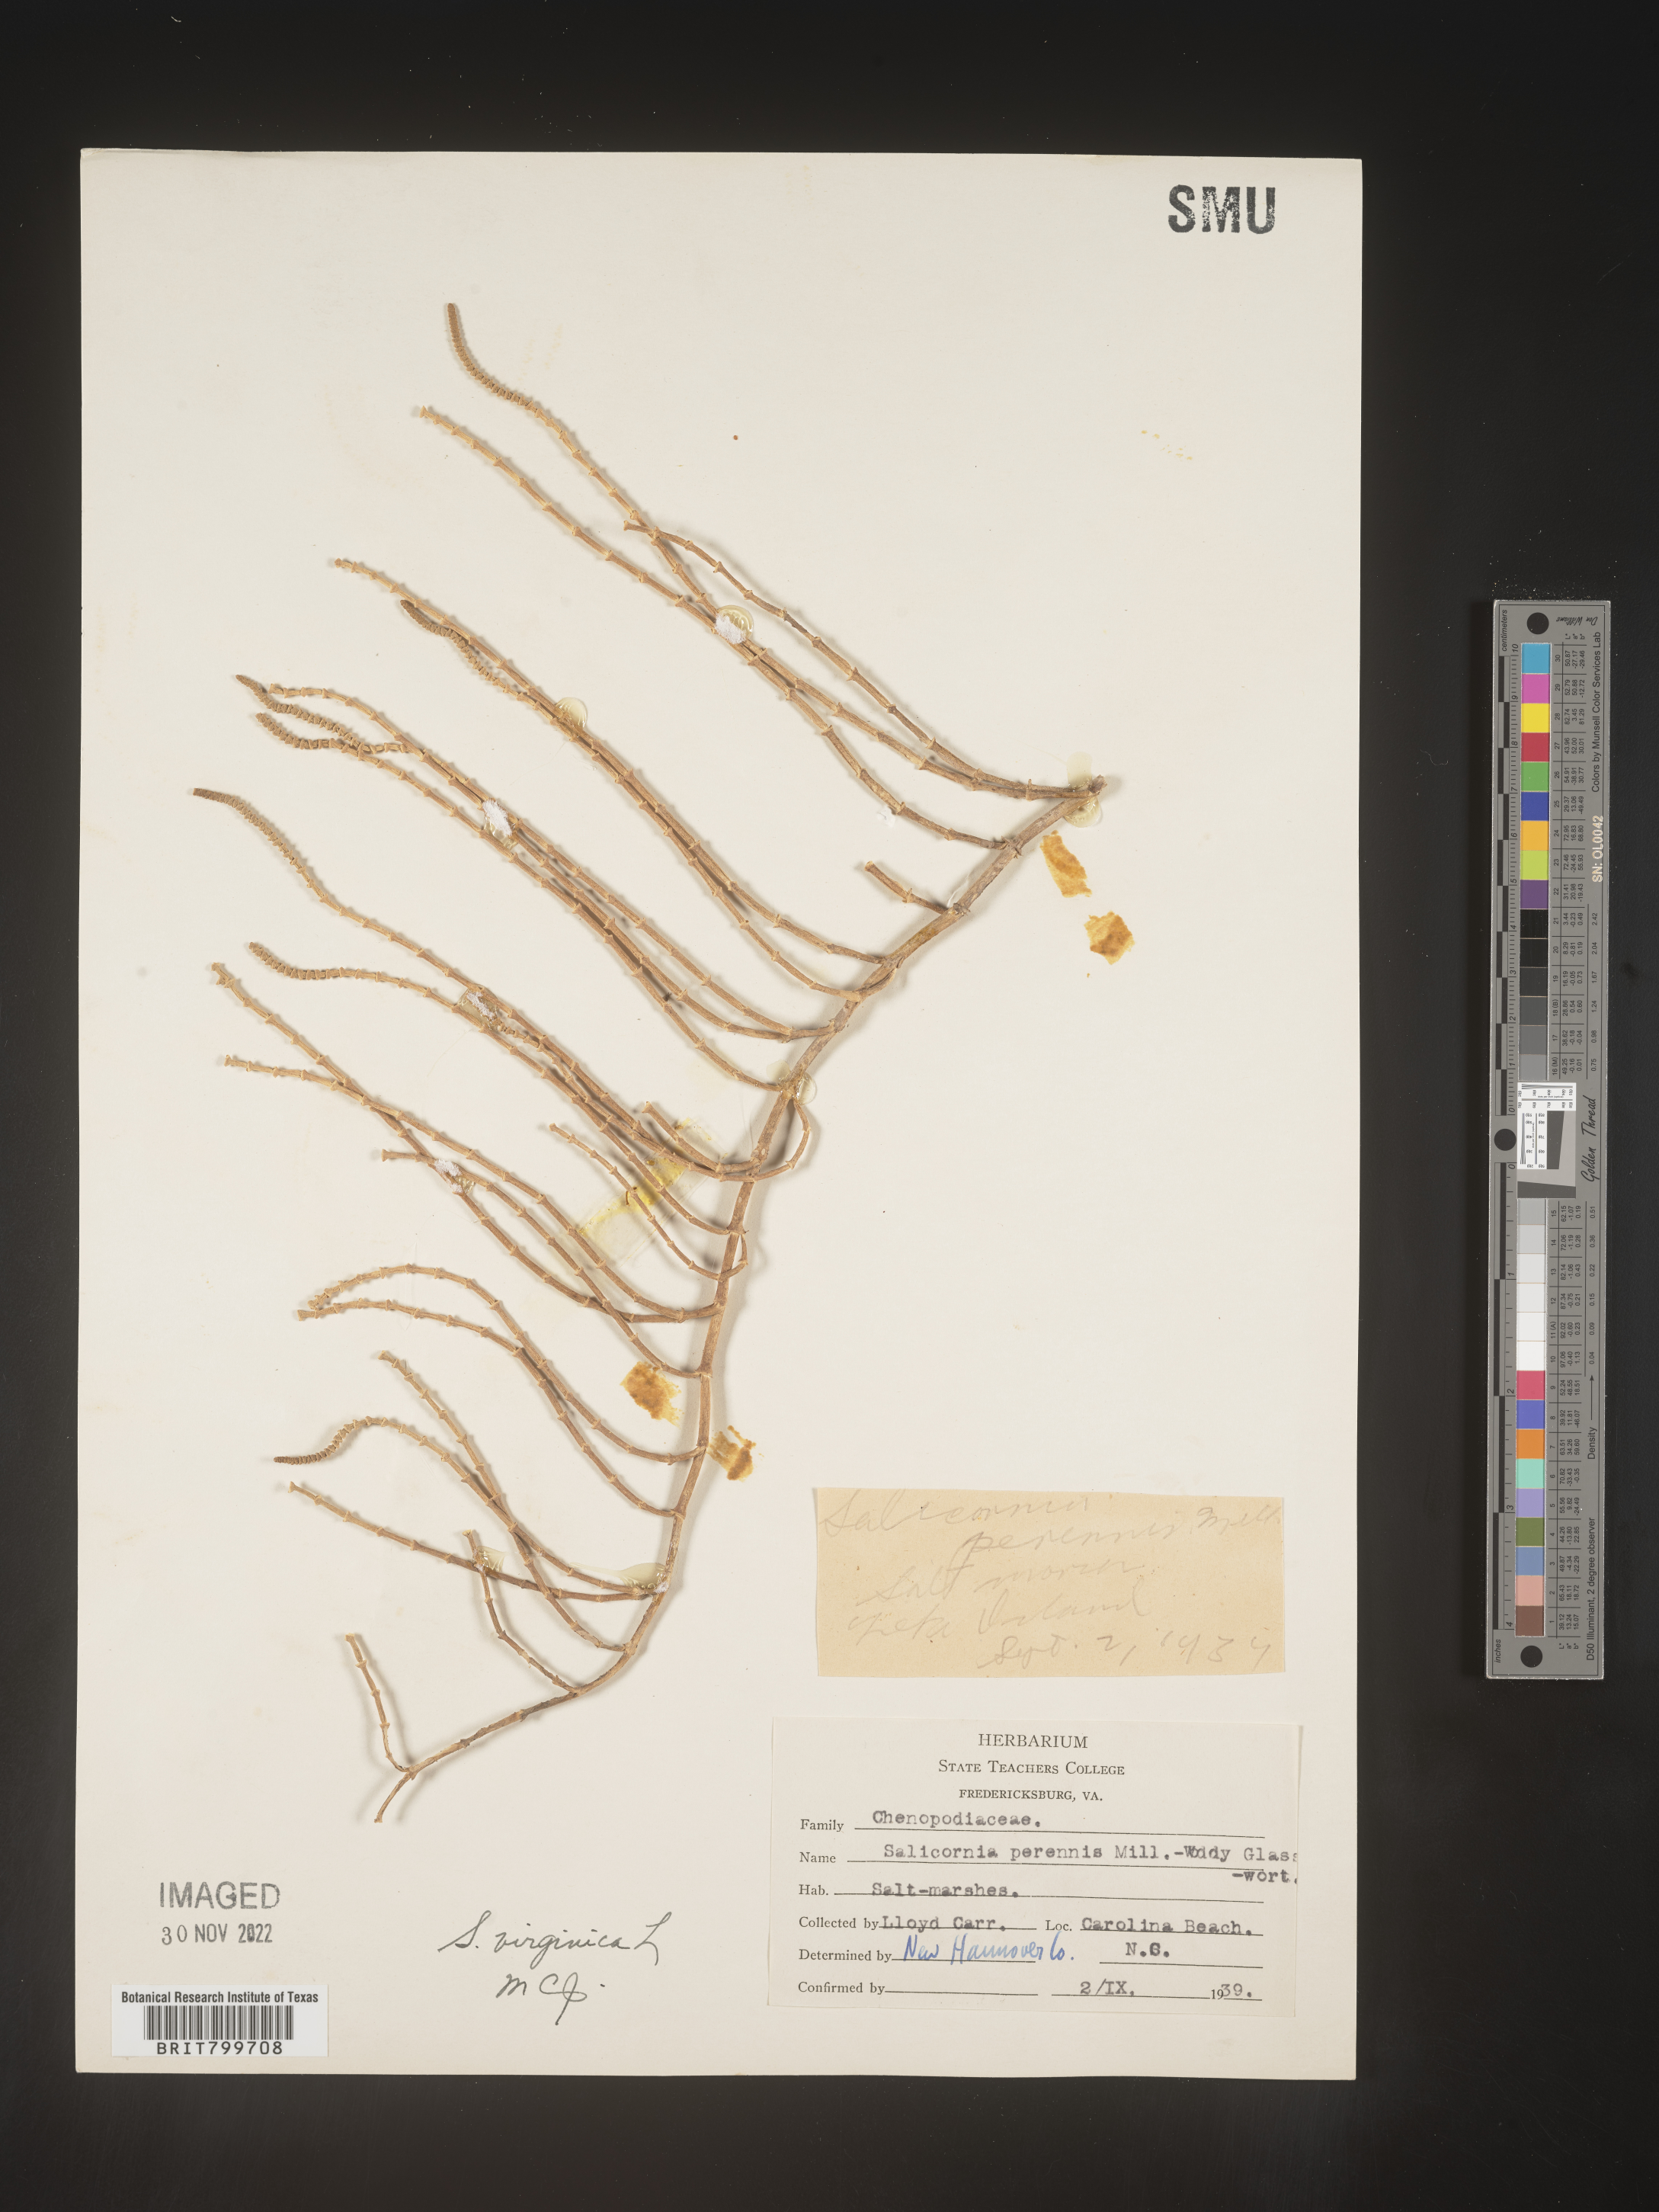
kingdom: Plantae
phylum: Tracheophyta
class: Magnoliopsida
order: Caryophyllales
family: Amaranthaceae
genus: Salicornia
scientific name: Salicornia virginica
